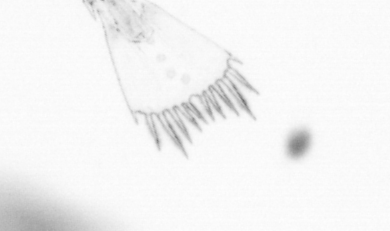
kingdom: Animalia
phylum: Arthropoda
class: Copepoda
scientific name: Copepoda
